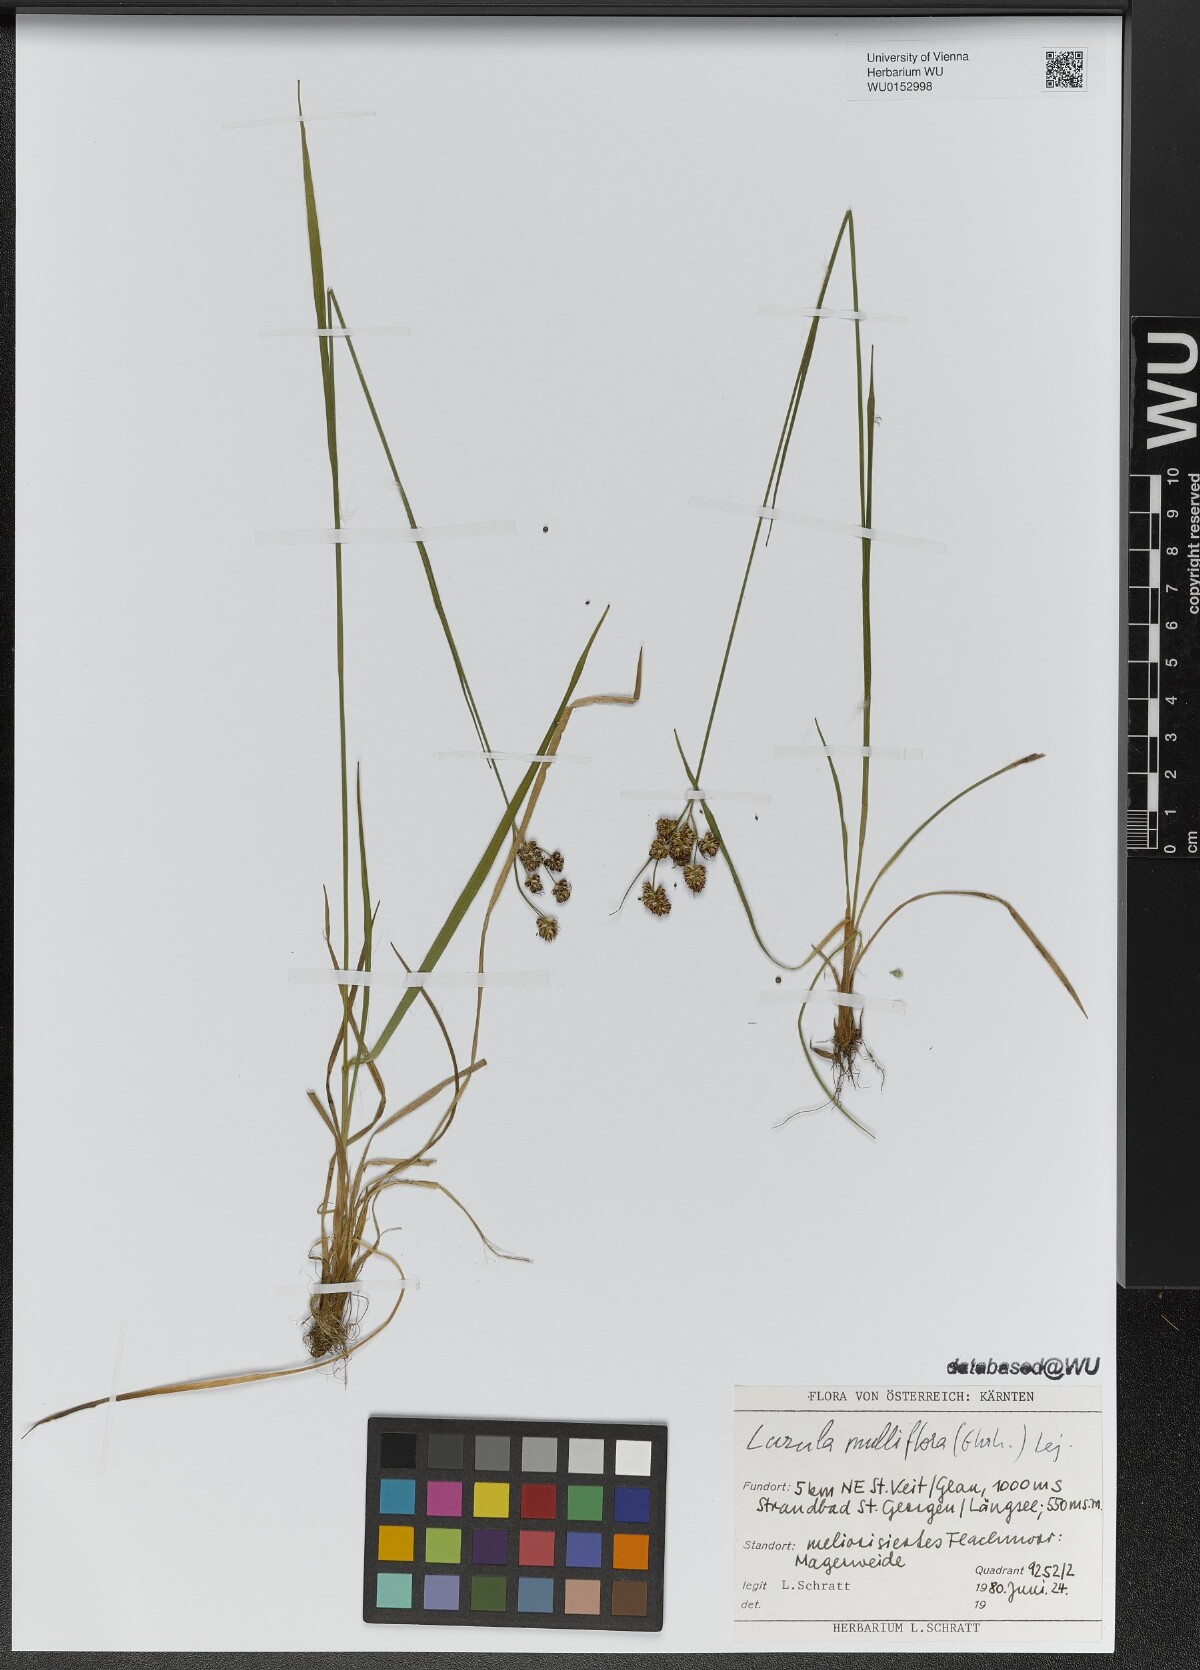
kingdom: Plantae
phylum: Tracheophyta
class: Liliopsida
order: Poales
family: Juncaceae
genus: Luzula
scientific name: Luzula multiflora
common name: Heath wood-rush
